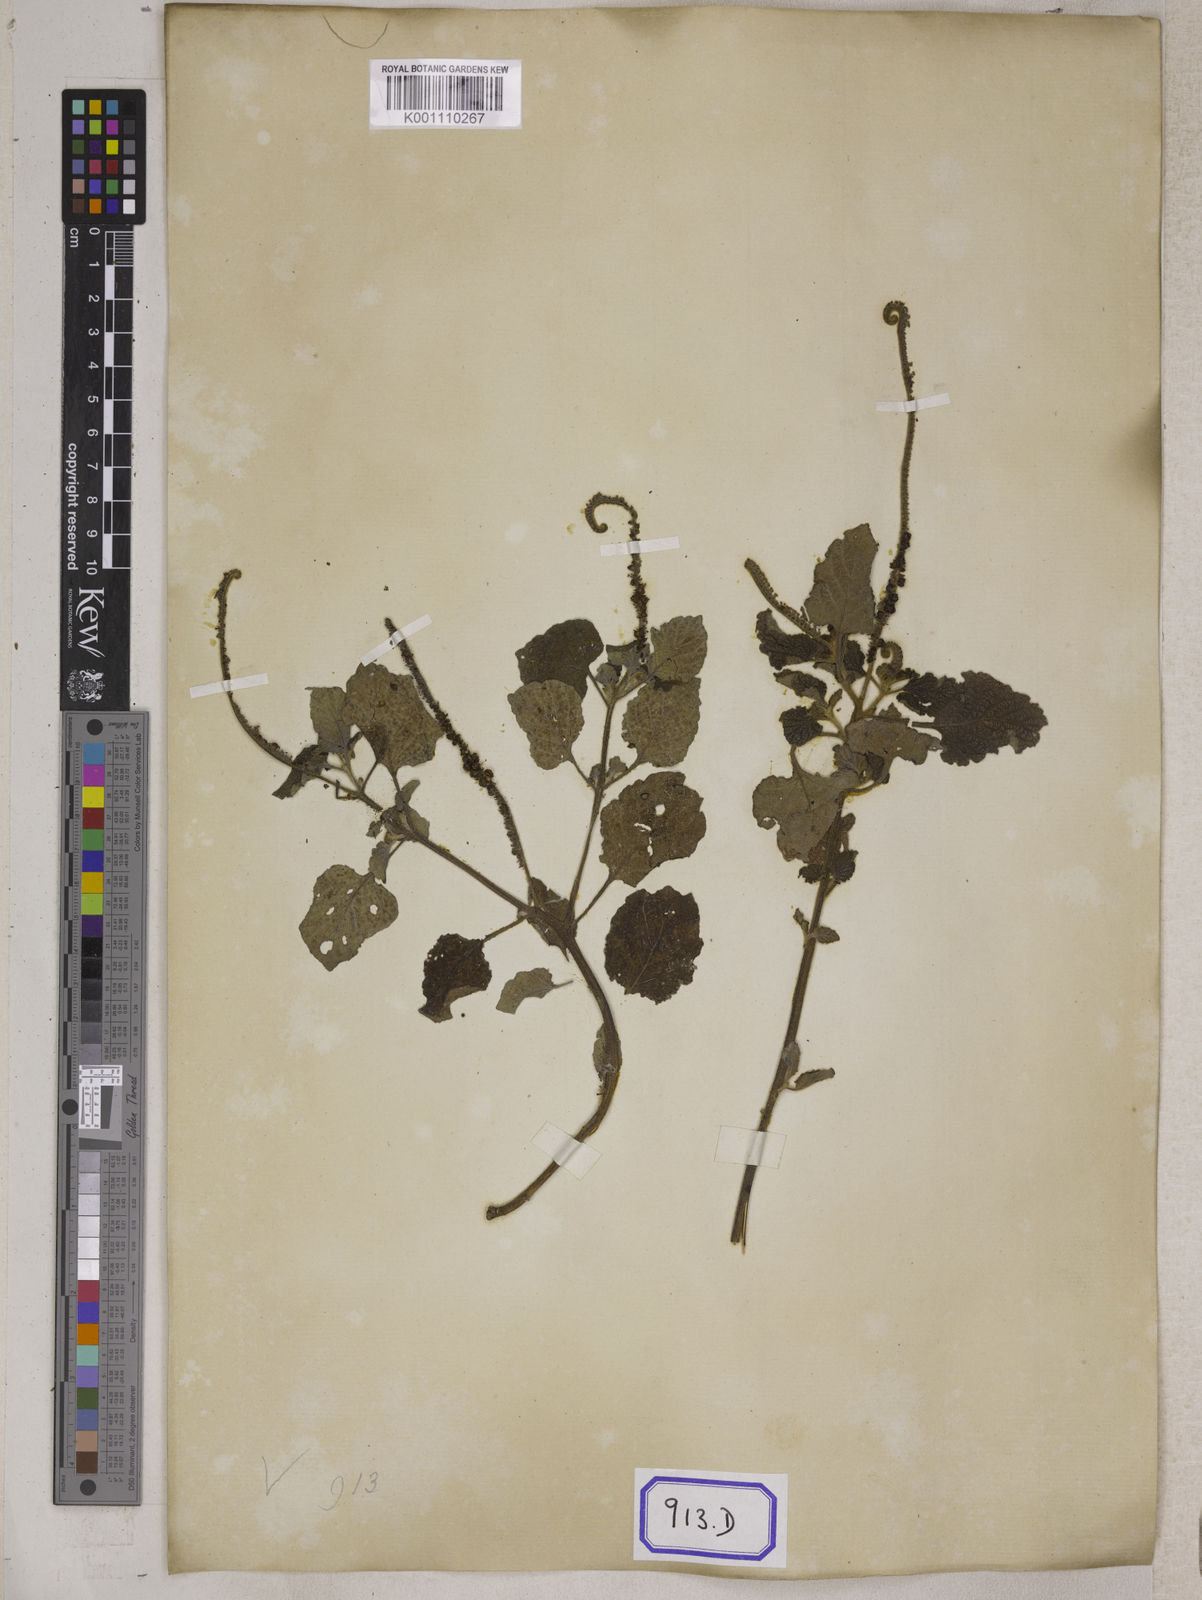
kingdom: Plantae
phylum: Tracheophyta
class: Magnoliopsida
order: Boraginales
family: Heliotropiaceae
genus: Heliotropium
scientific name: Heliotropium indicum
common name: Indian heliotrope
